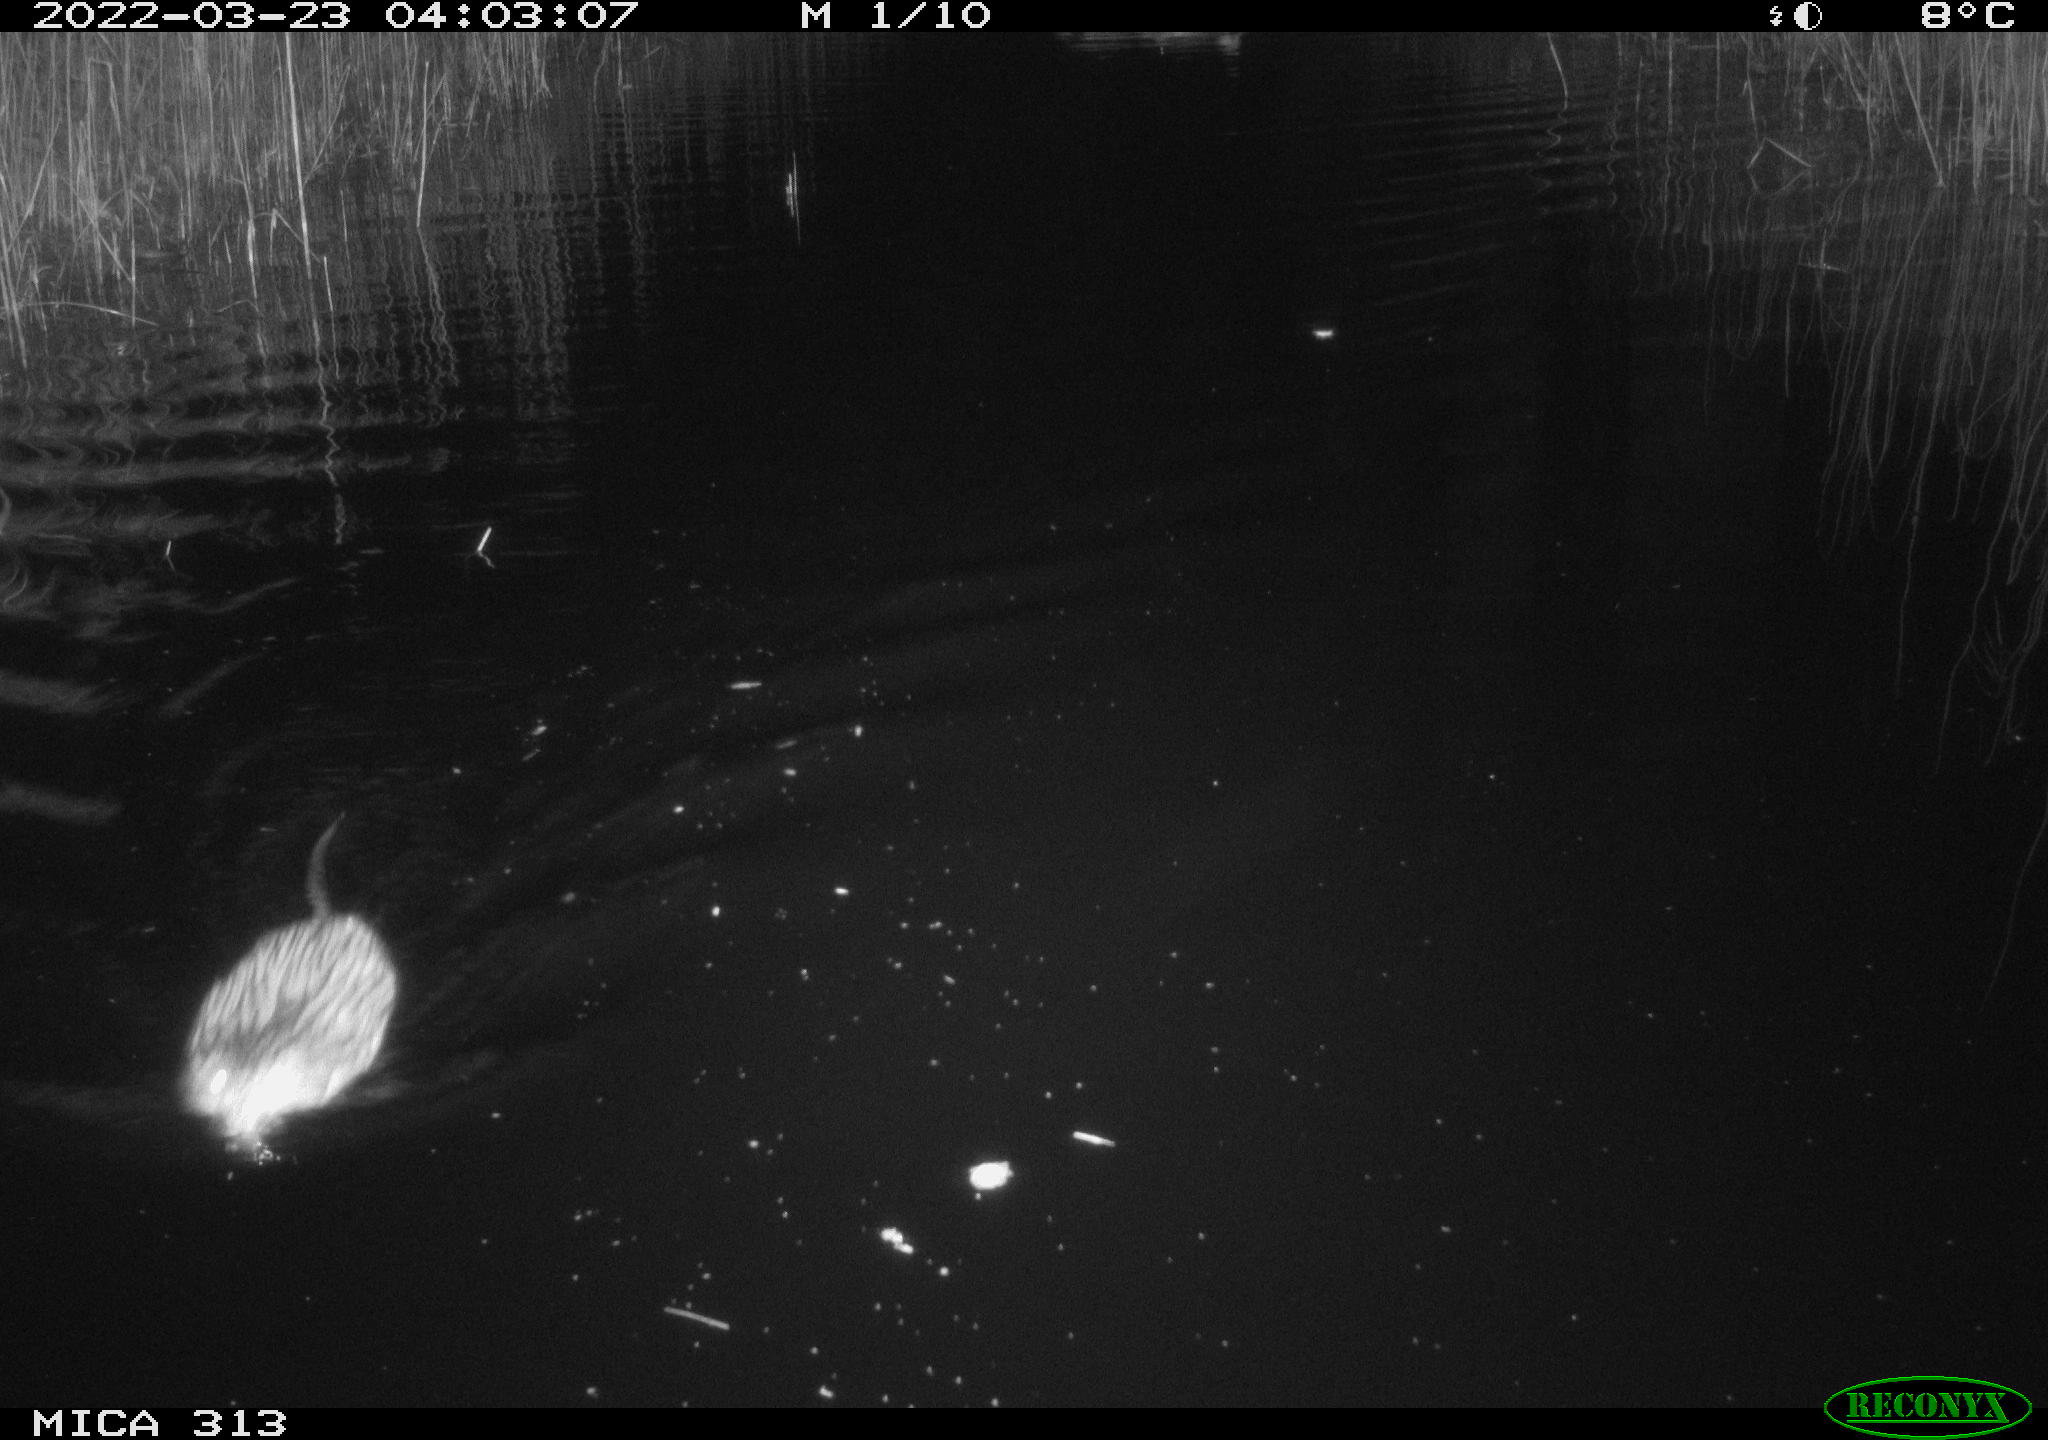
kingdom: Animalia
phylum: Chordata
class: Mammalia
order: Rodentia
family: Cricetidae
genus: Ondatra
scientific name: Ondatra zibethicus
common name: Muskrat
